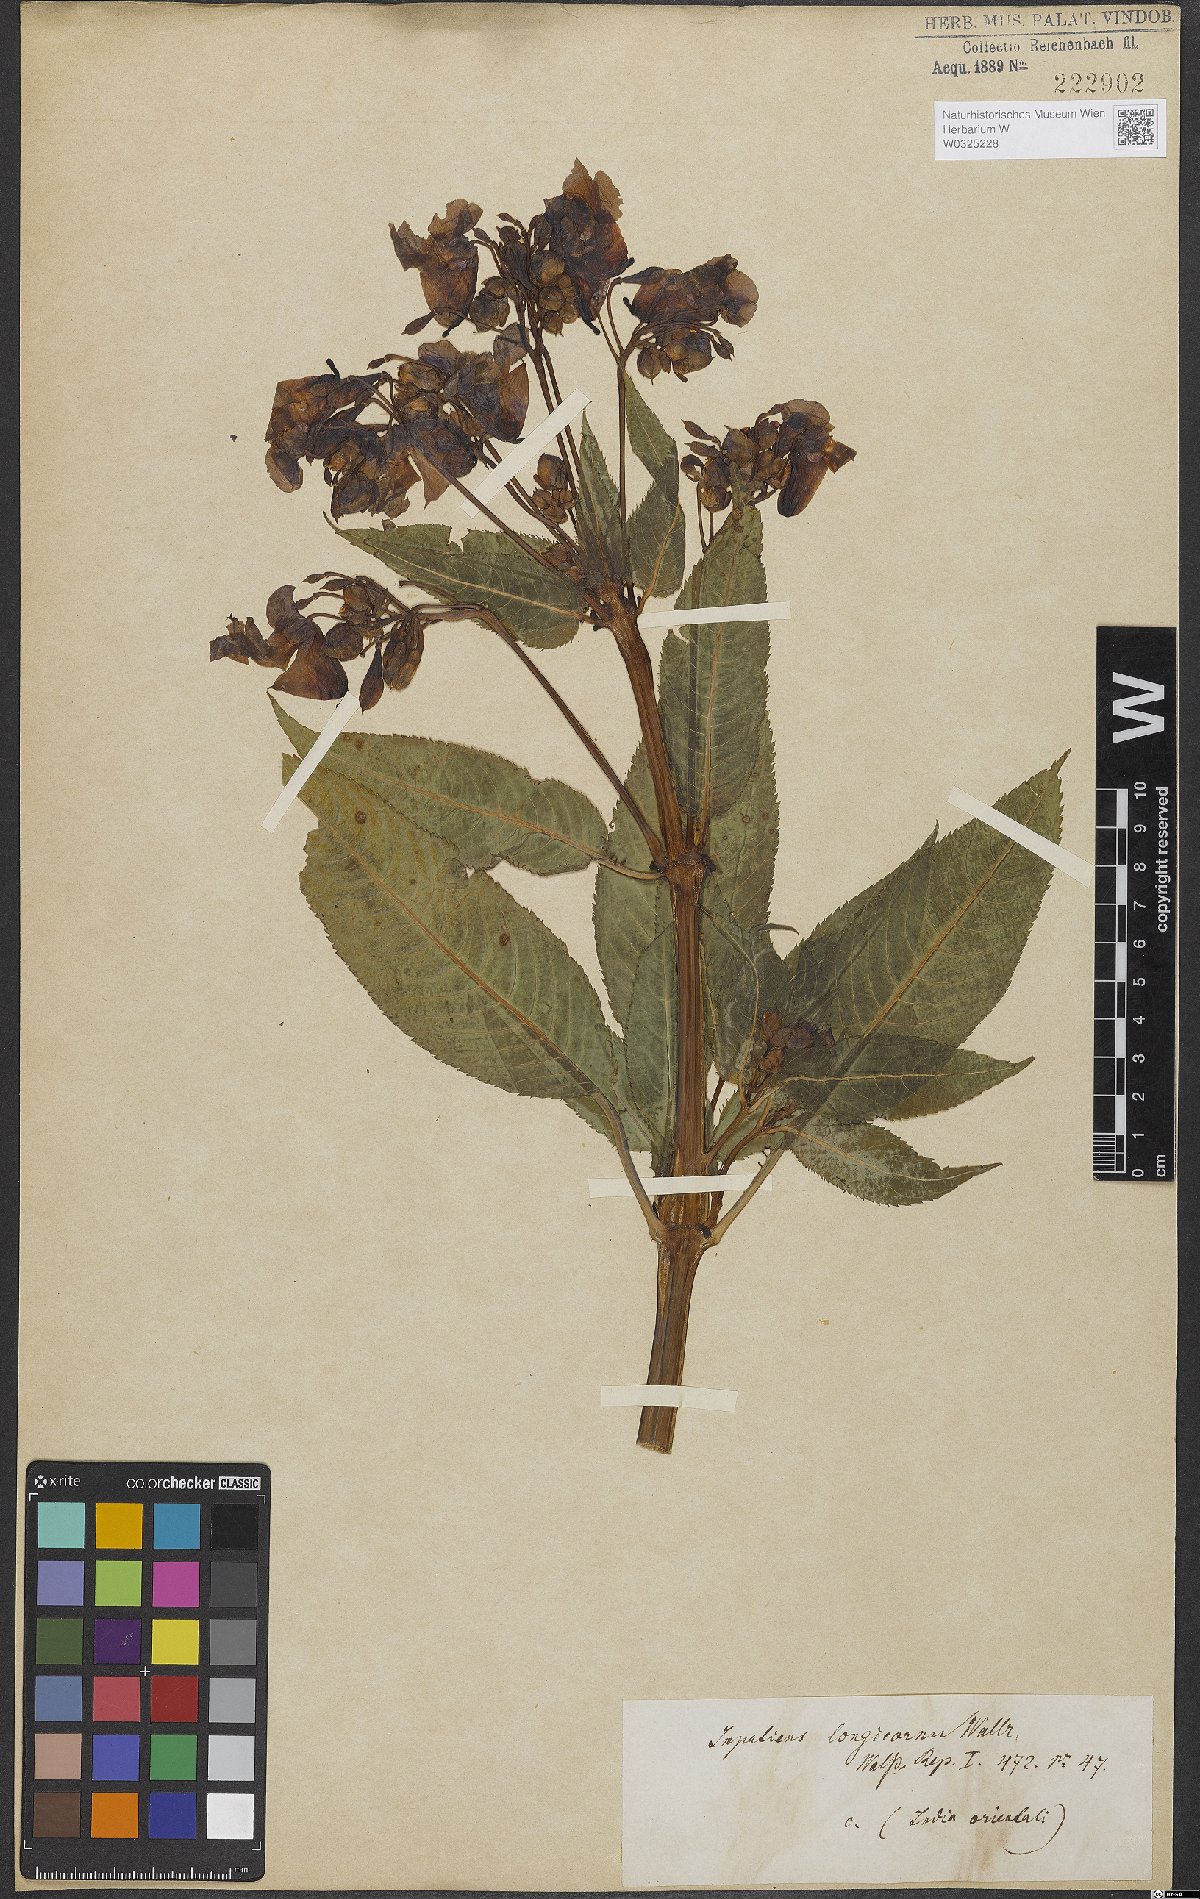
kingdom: Plantae
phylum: Tracheophyta
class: Magnoliopsida
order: Ericales
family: Balsaminaceae
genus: Impatiens
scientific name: Impatiens bicolor
